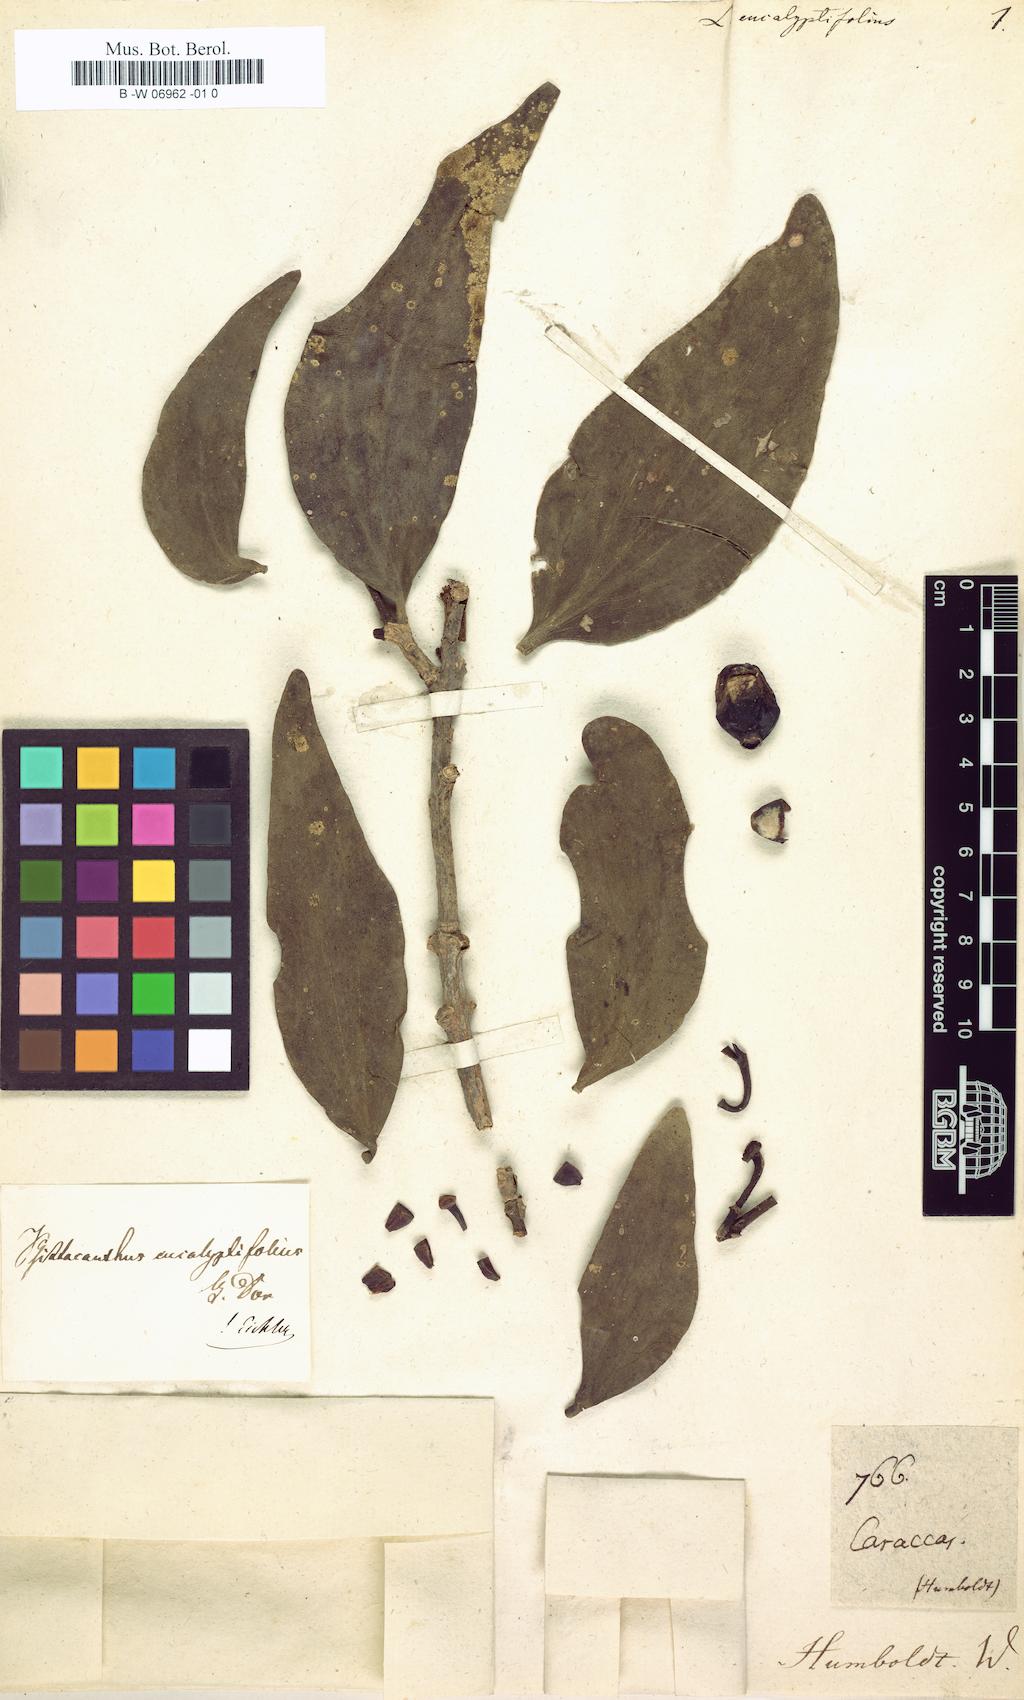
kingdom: Plantae
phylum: Tracheophyta
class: Magnoliopsida
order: Santalales
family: Loranthaceae
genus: Psittacanthus
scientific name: Psittacanthus eucalyptifolius
